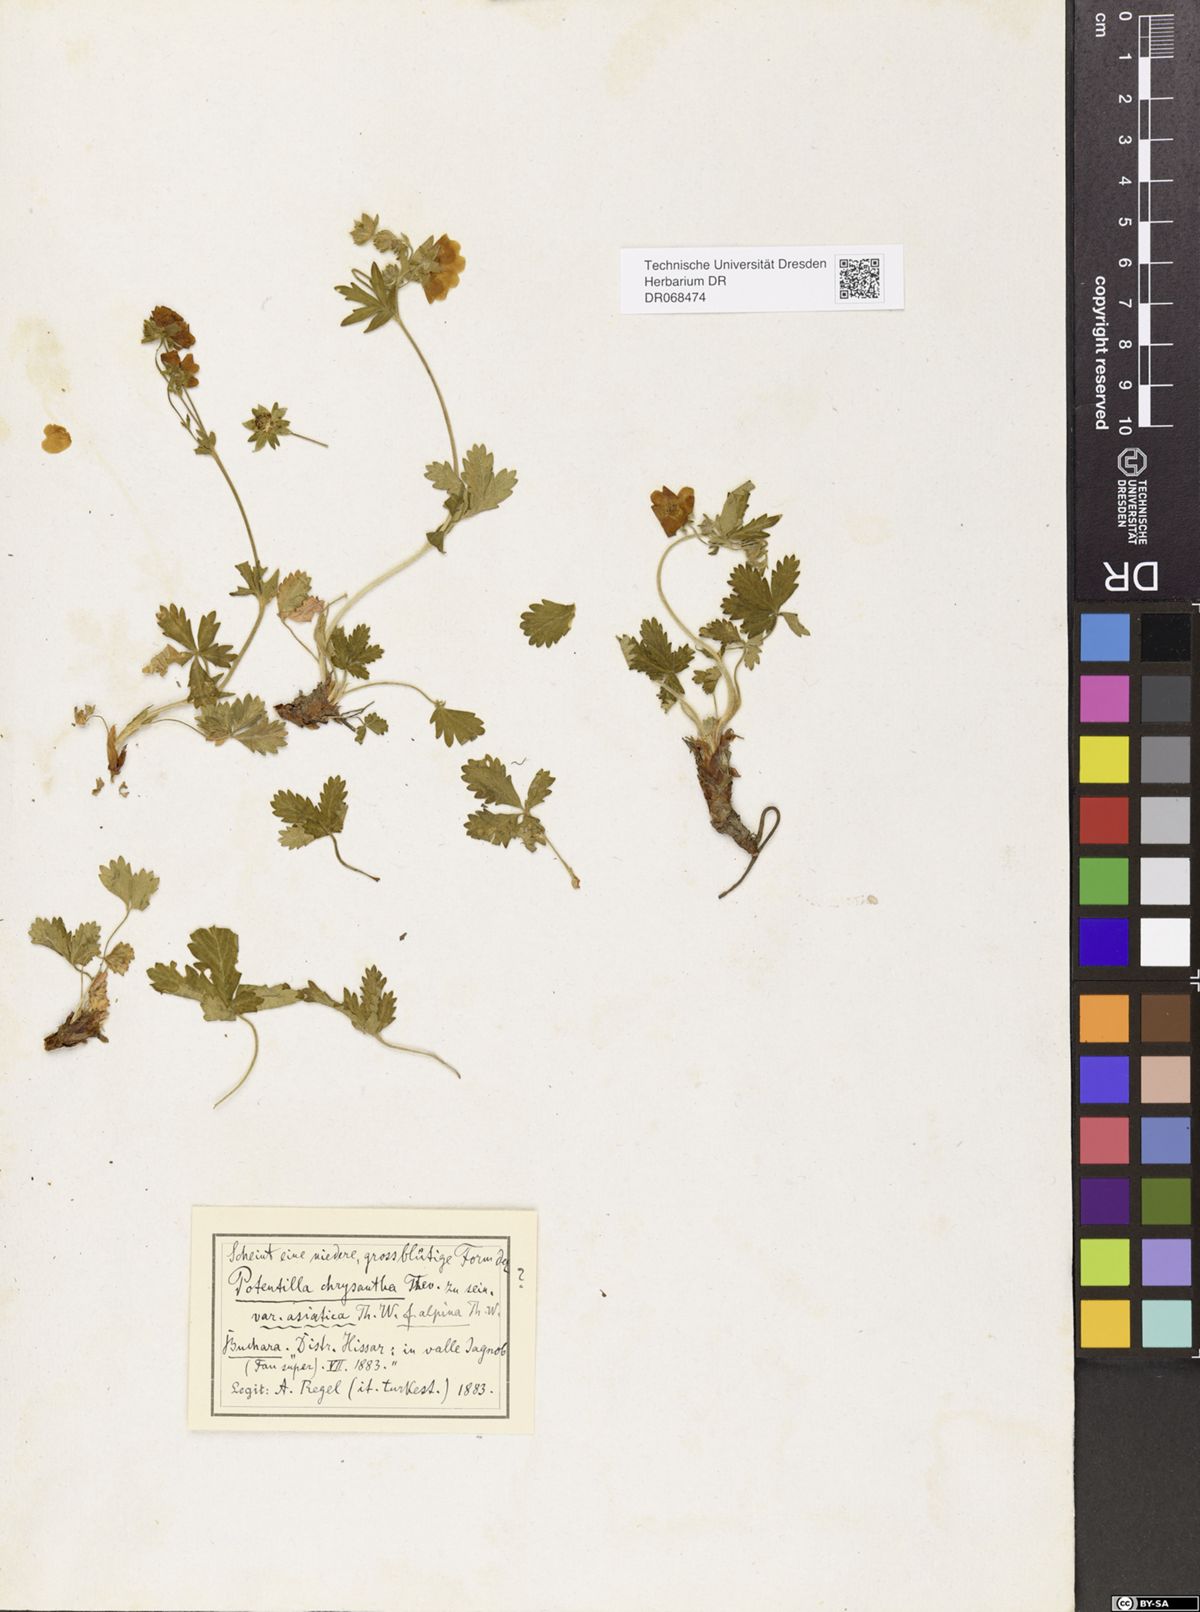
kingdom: Plantae
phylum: Tracheophyta
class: Magnoliopsida
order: Rosales
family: Rosaceae
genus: Potentilla
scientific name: Potentilla asiatica
